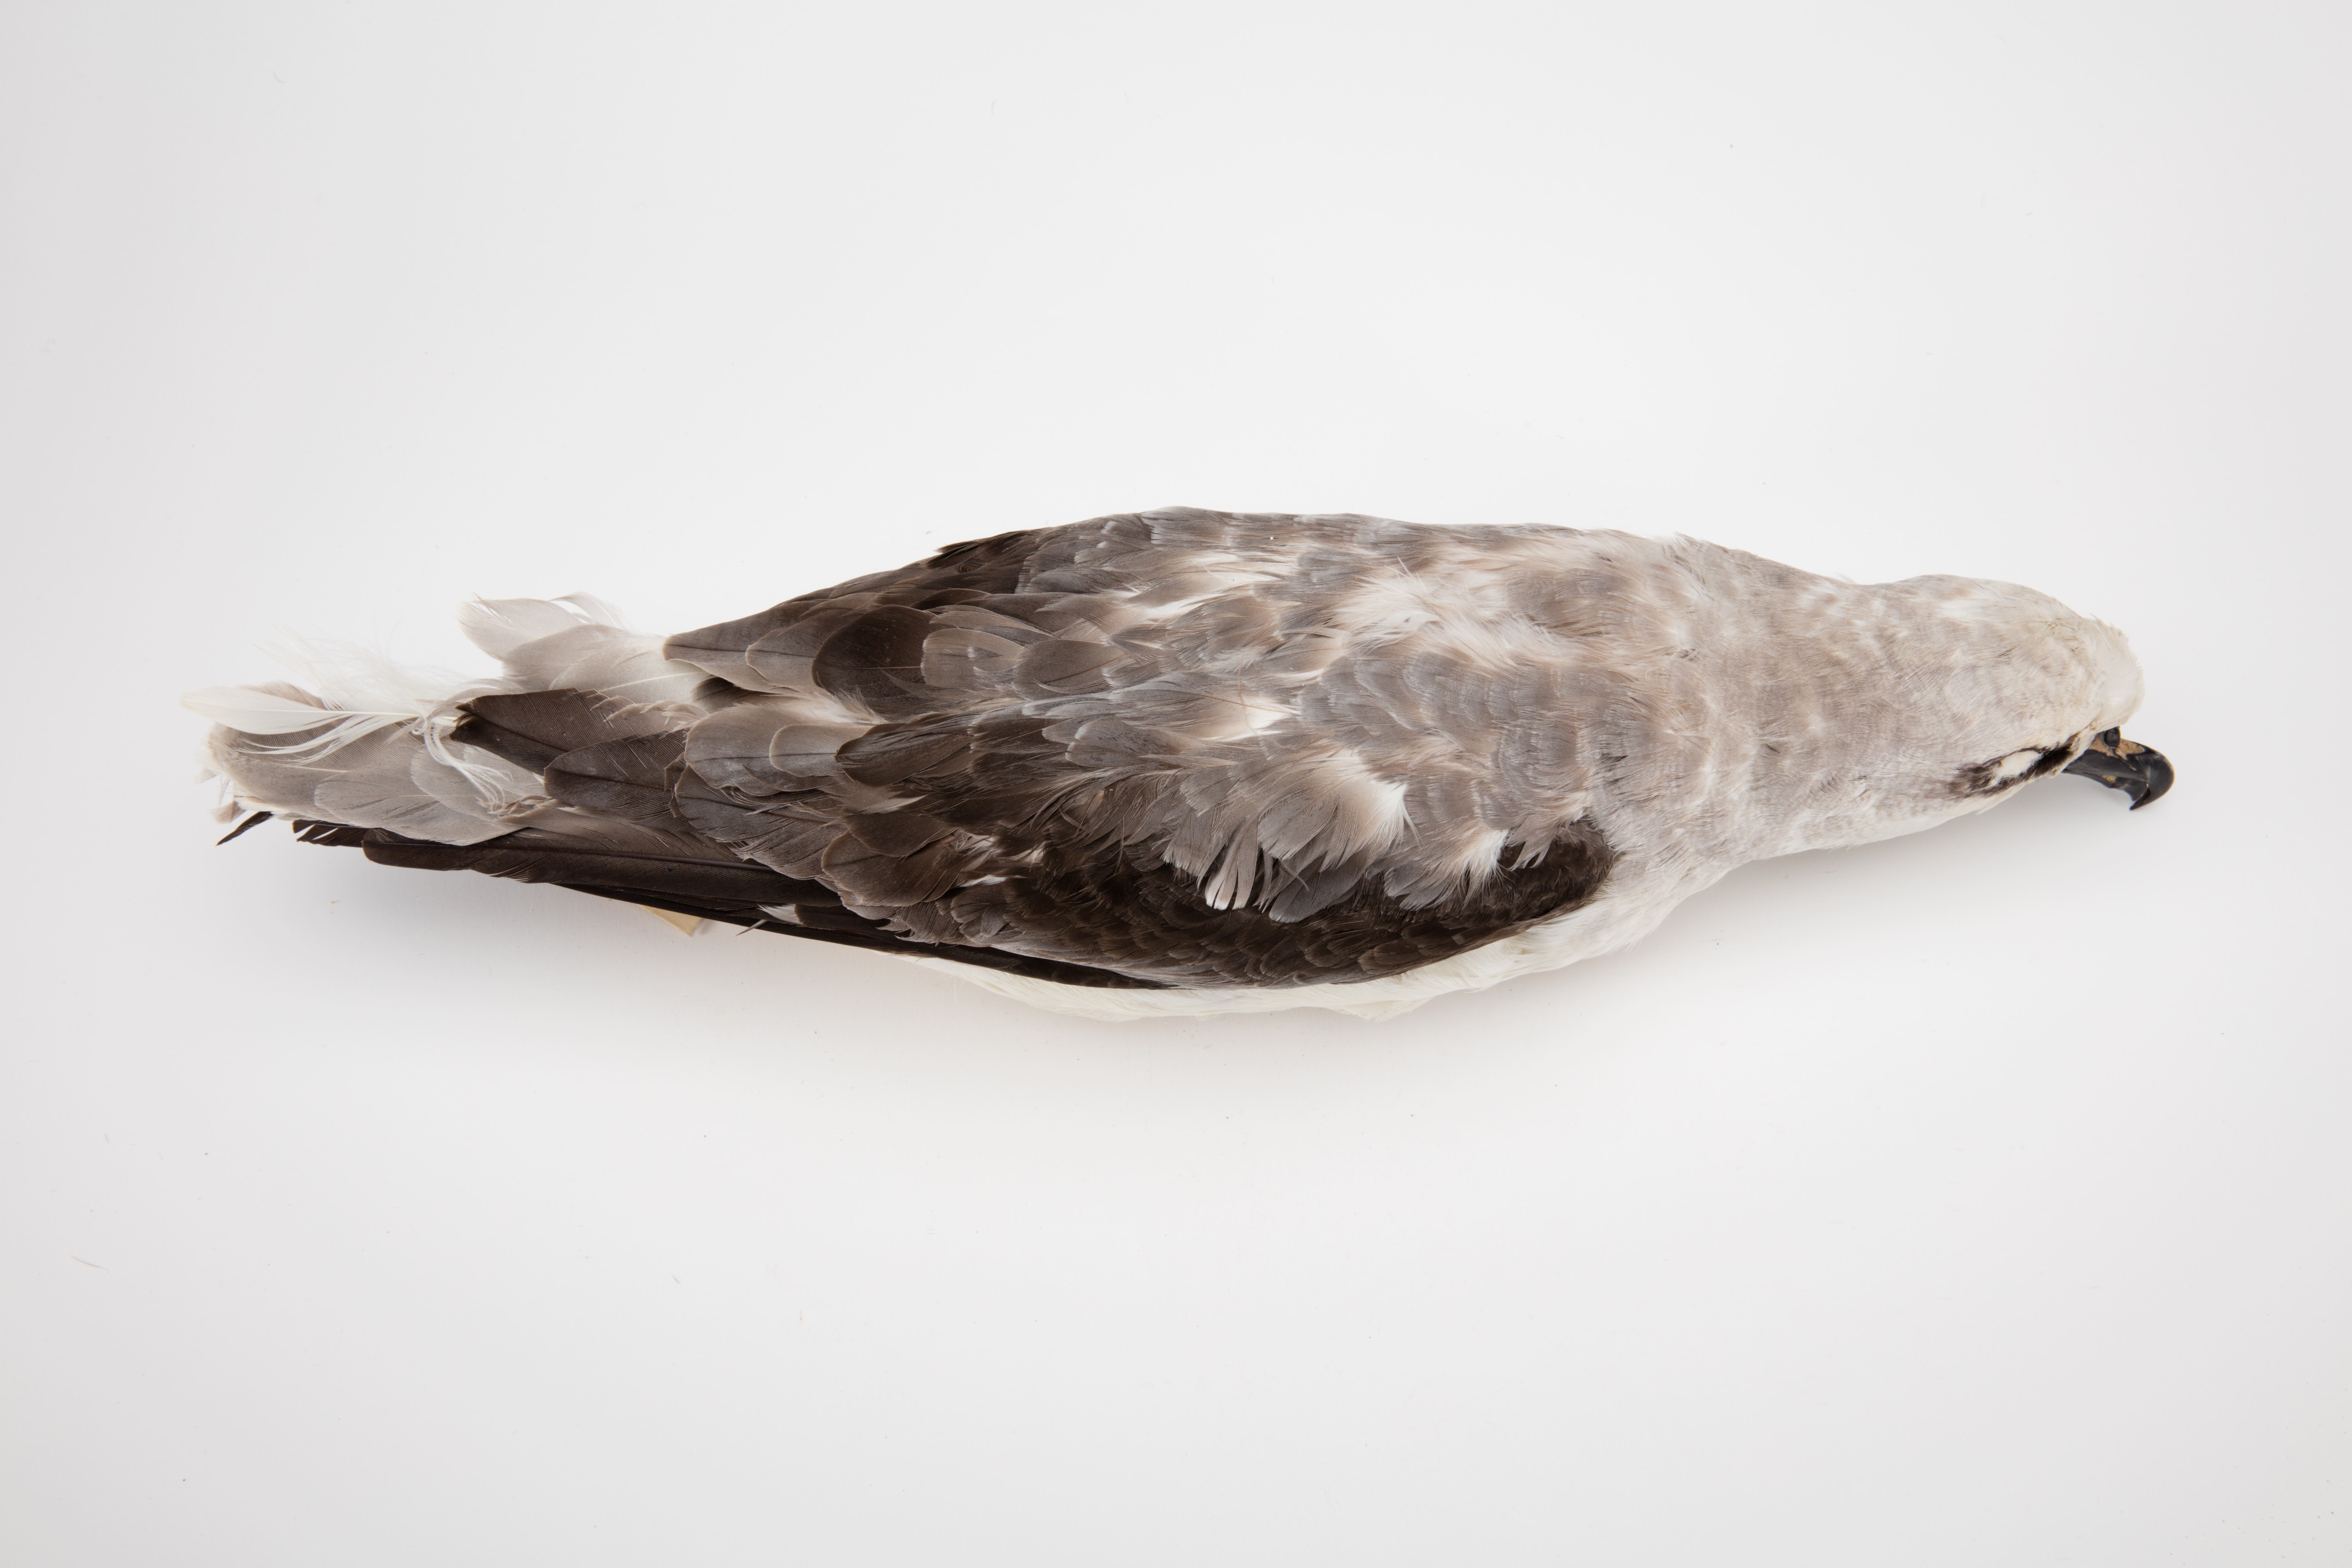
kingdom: Animalia
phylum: Chordata
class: Aves
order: Procellariiformes
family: Procellariidae
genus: Pterodroma
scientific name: Pterodroma lessonii
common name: White-headed petrel
